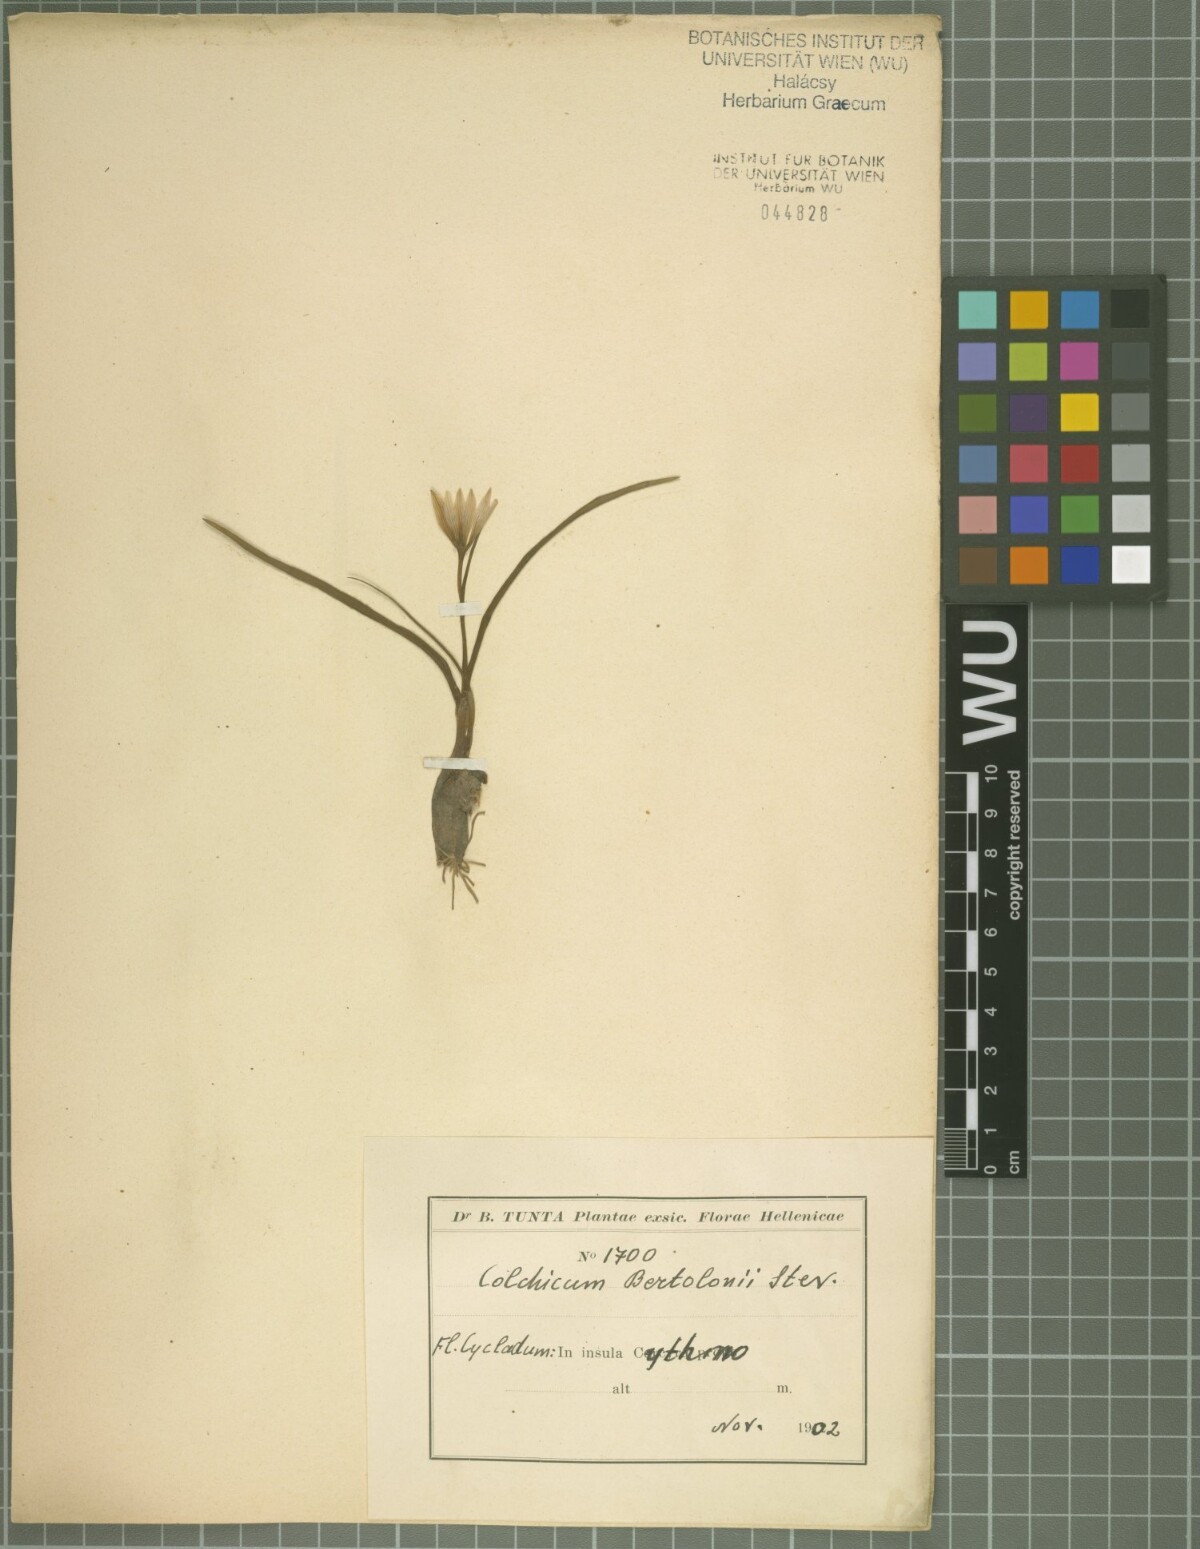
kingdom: Plantae
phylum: Tracheophyta
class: Liliopsida
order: Liliales
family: Colchicaceae
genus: Colchicum
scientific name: Colchicum cupanii
